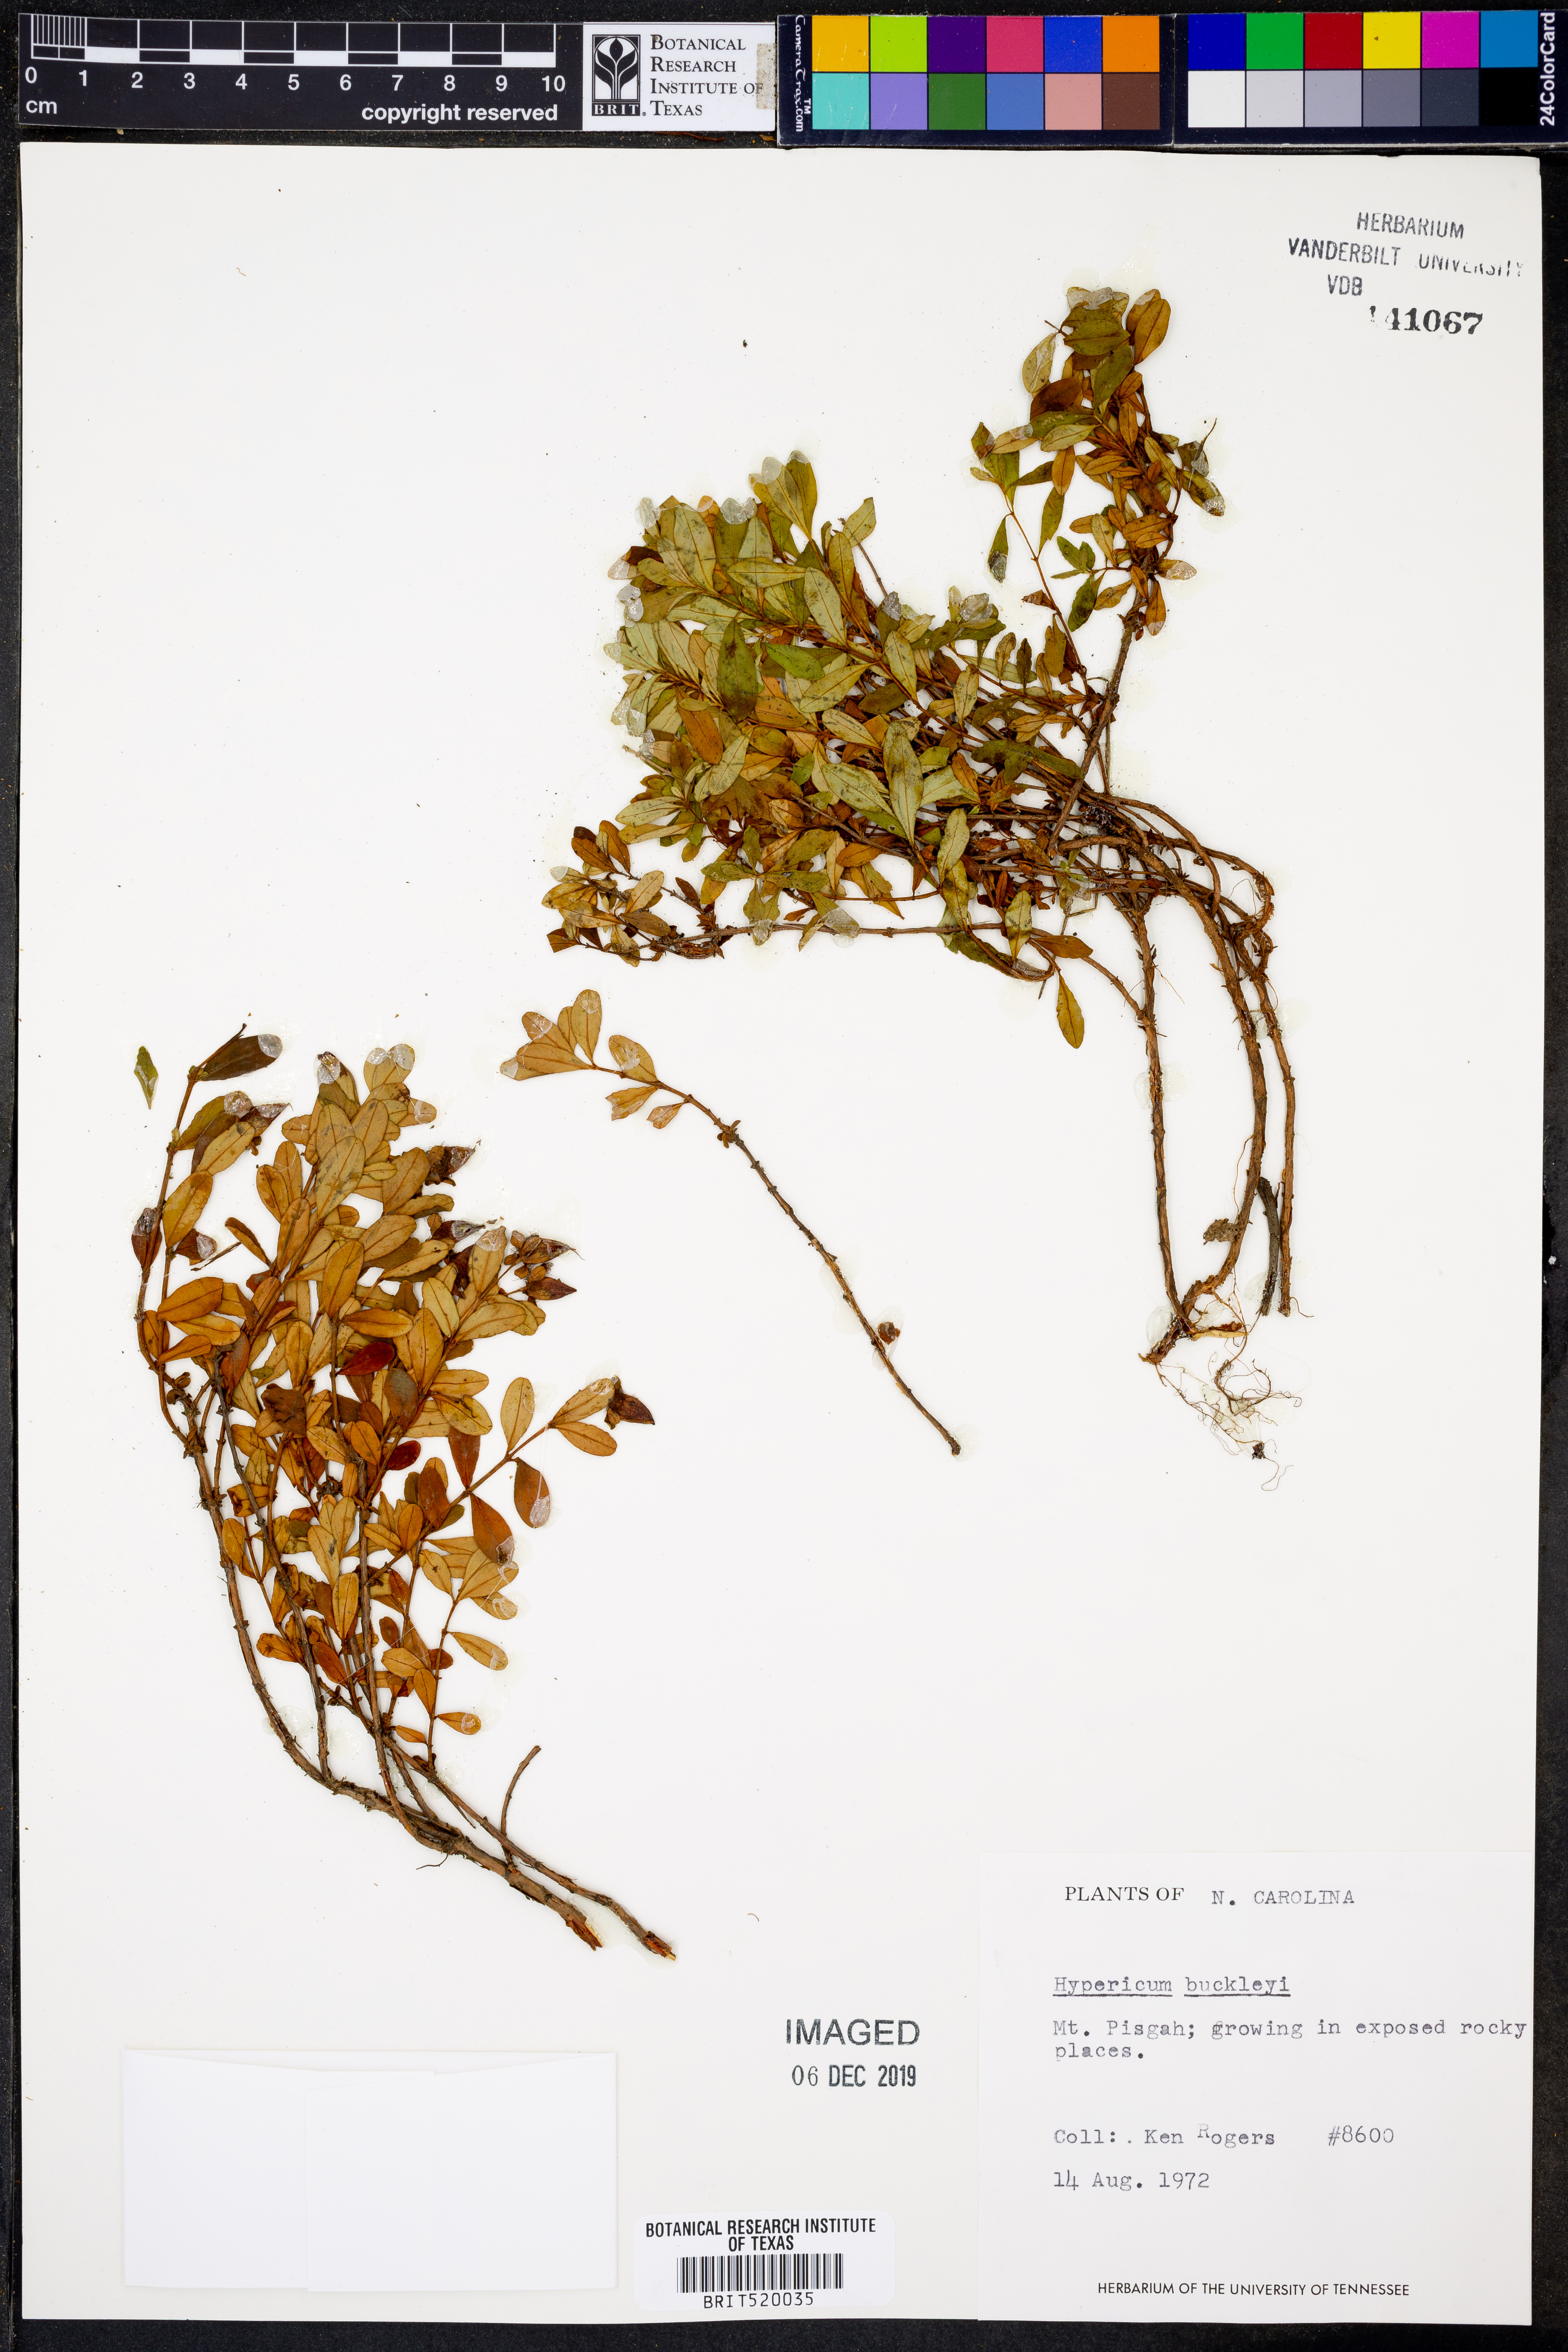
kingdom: Plantae
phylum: Tracheophyta
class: Magnoliopsida
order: Malpighiales
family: Hypericaceae
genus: Hypericum
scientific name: Hypericum buckleyi
